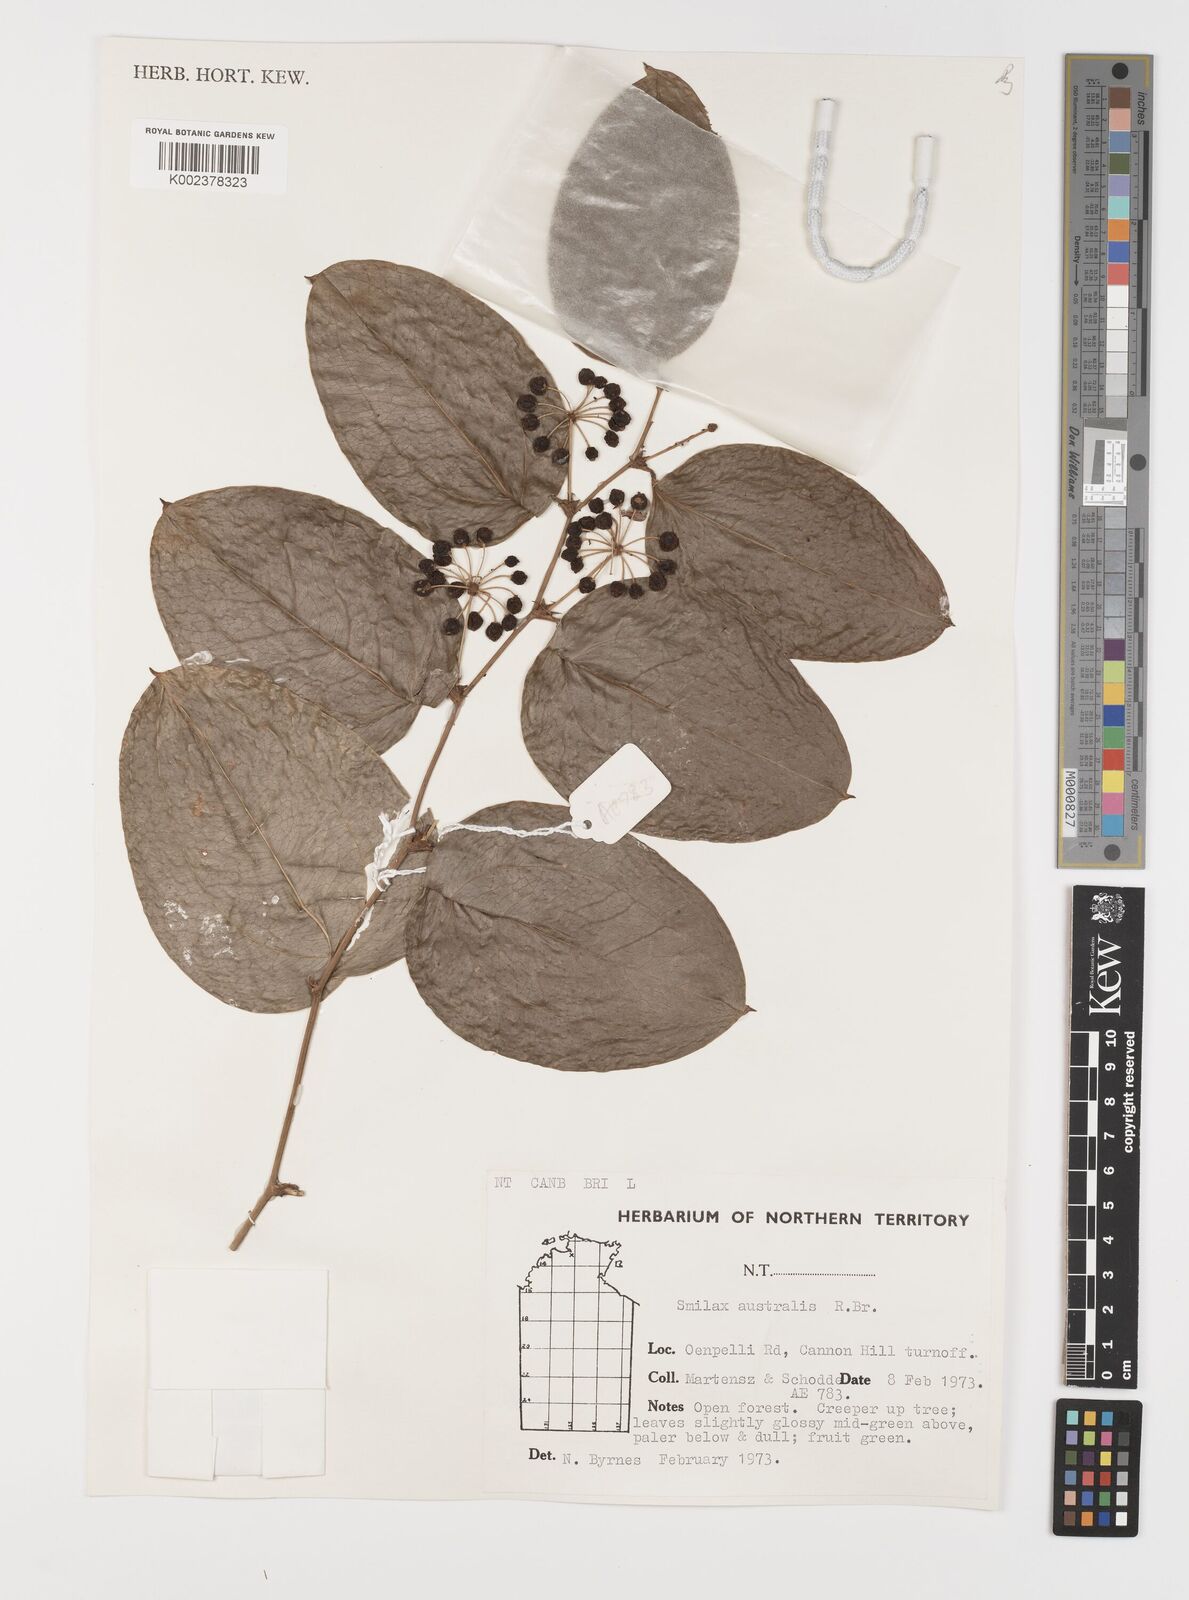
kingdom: Plantae
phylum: Tracheophyta
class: Liliopsida
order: Liliales
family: Smilacaceae
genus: Smilax
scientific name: Smilax australis
